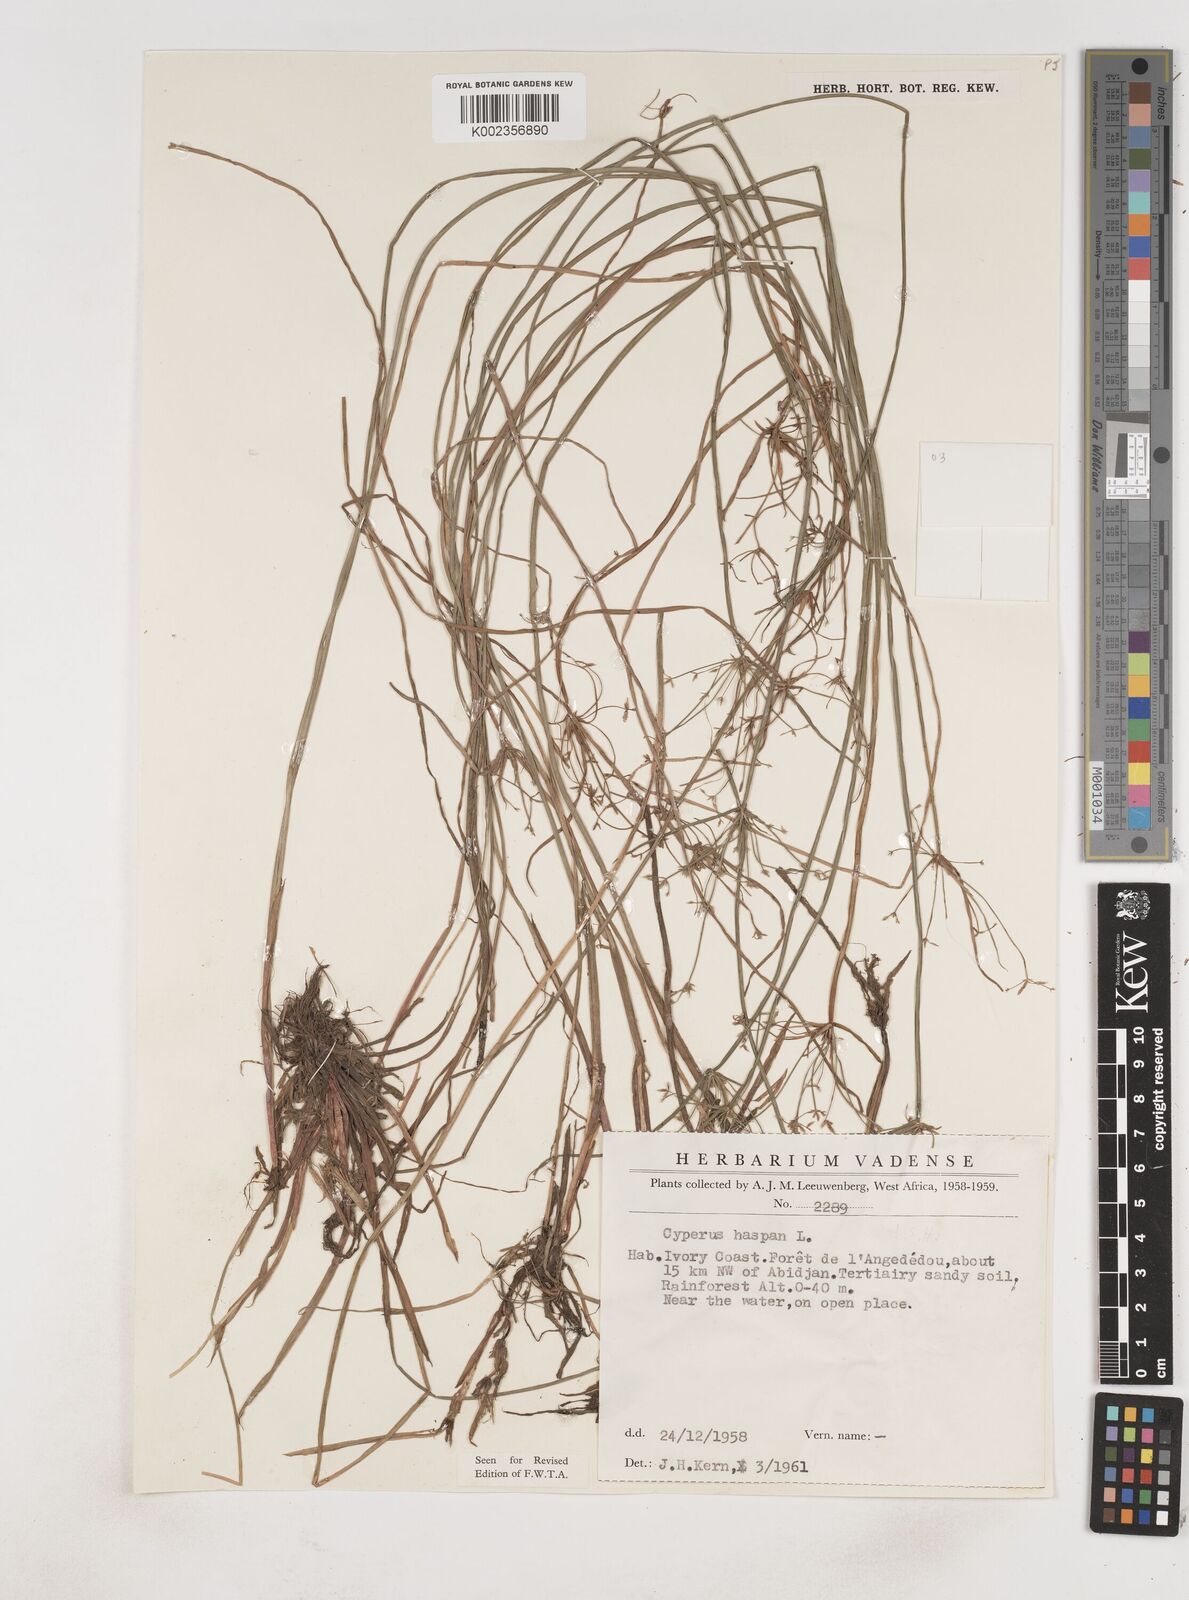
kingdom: Plantae
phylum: Tracheophyta
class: Liliopsida
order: Poales
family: Cyperaceae
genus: Cyperus
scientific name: Cyperus haspan
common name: Haspan flatsedge
